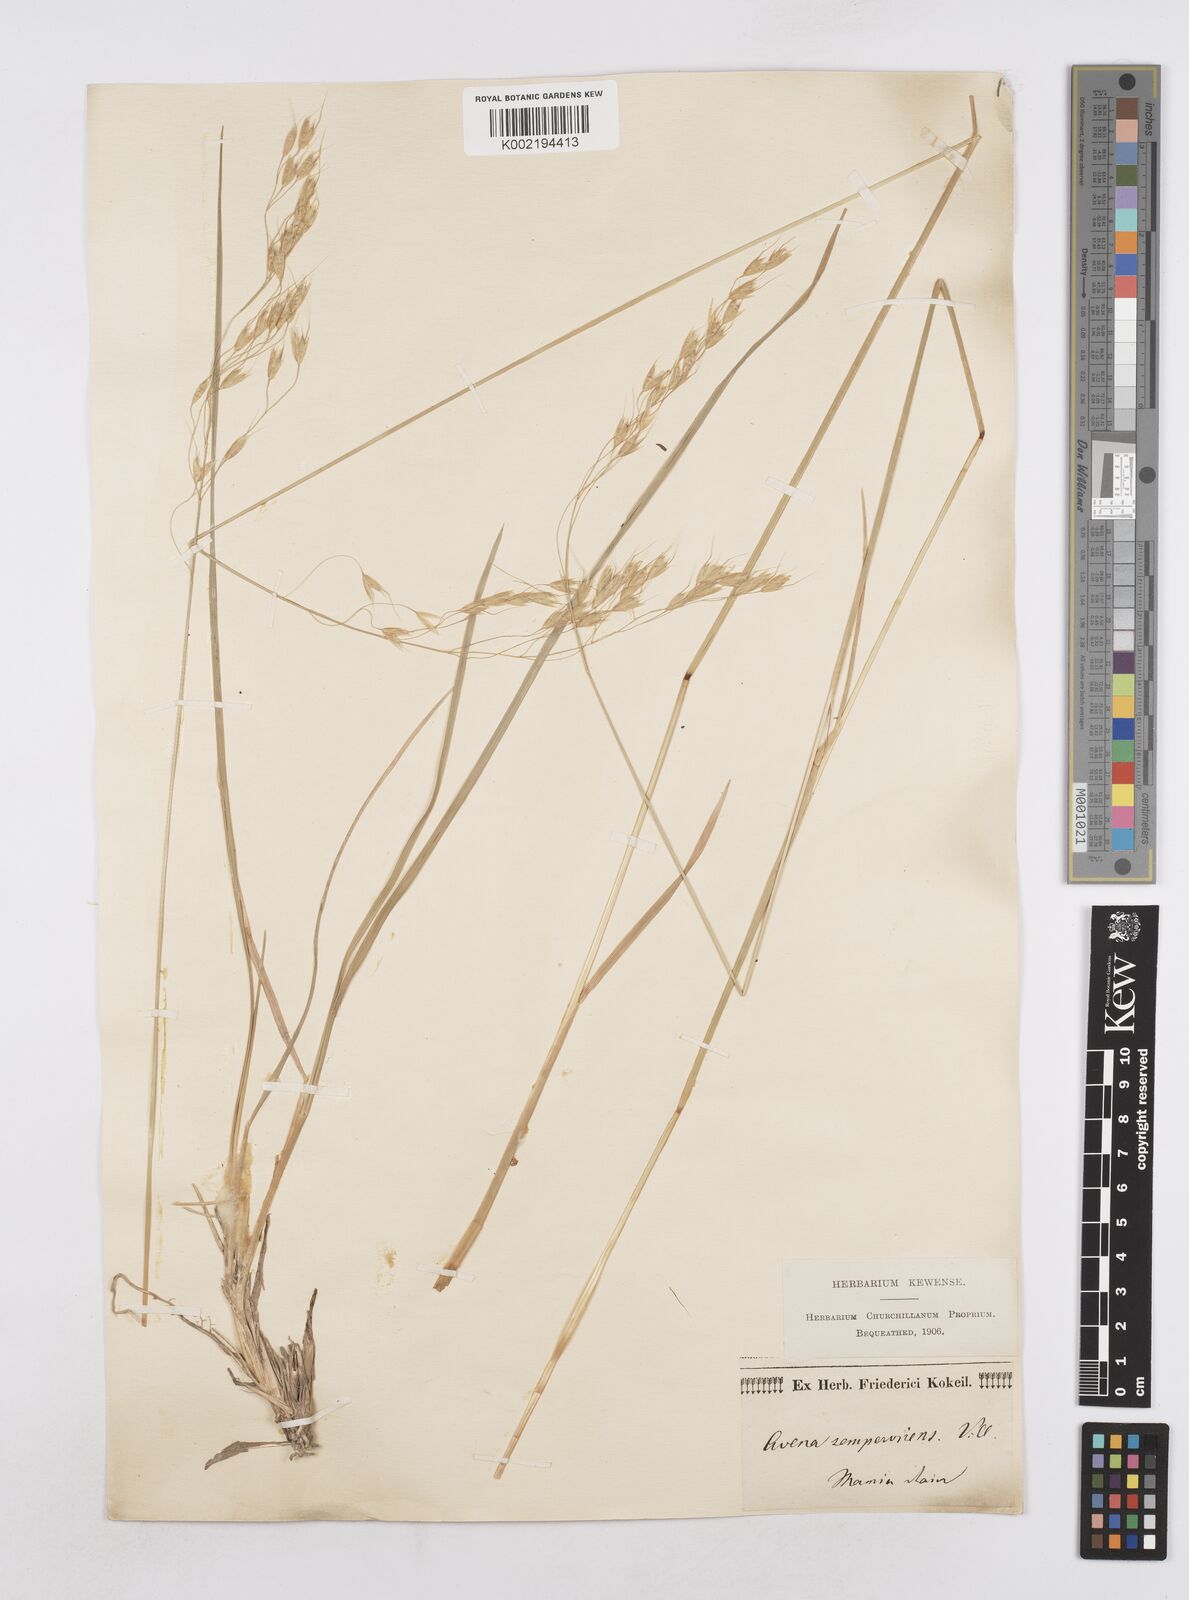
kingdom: Plantae
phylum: Tracheophyta
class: Liliopsida
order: Poales
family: Poaceae
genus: Helictotrichon
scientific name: Helictotrichon sempervirens
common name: Blue oat-grass
